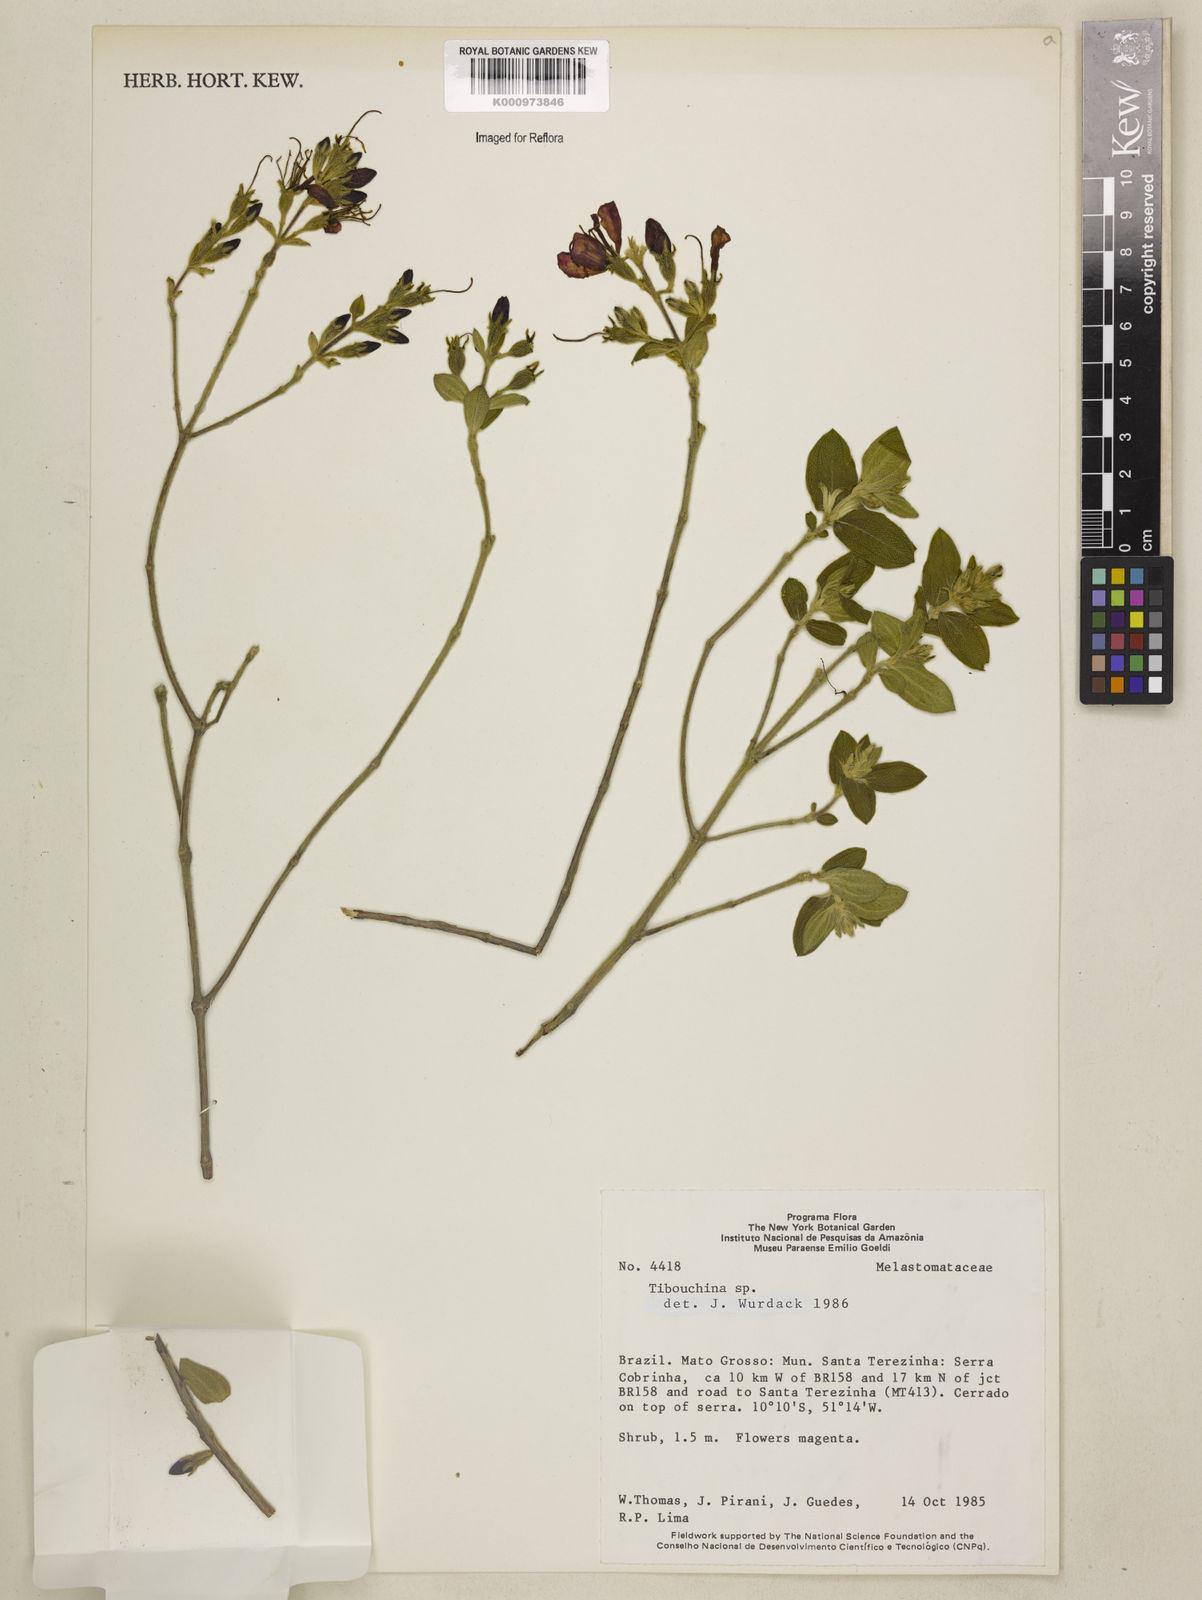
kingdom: Plantae
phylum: Tracheophyta
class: Magnoliopsida
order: Myrtales
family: Melastomataceae
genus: Tibouchina
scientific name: Tibouchina
